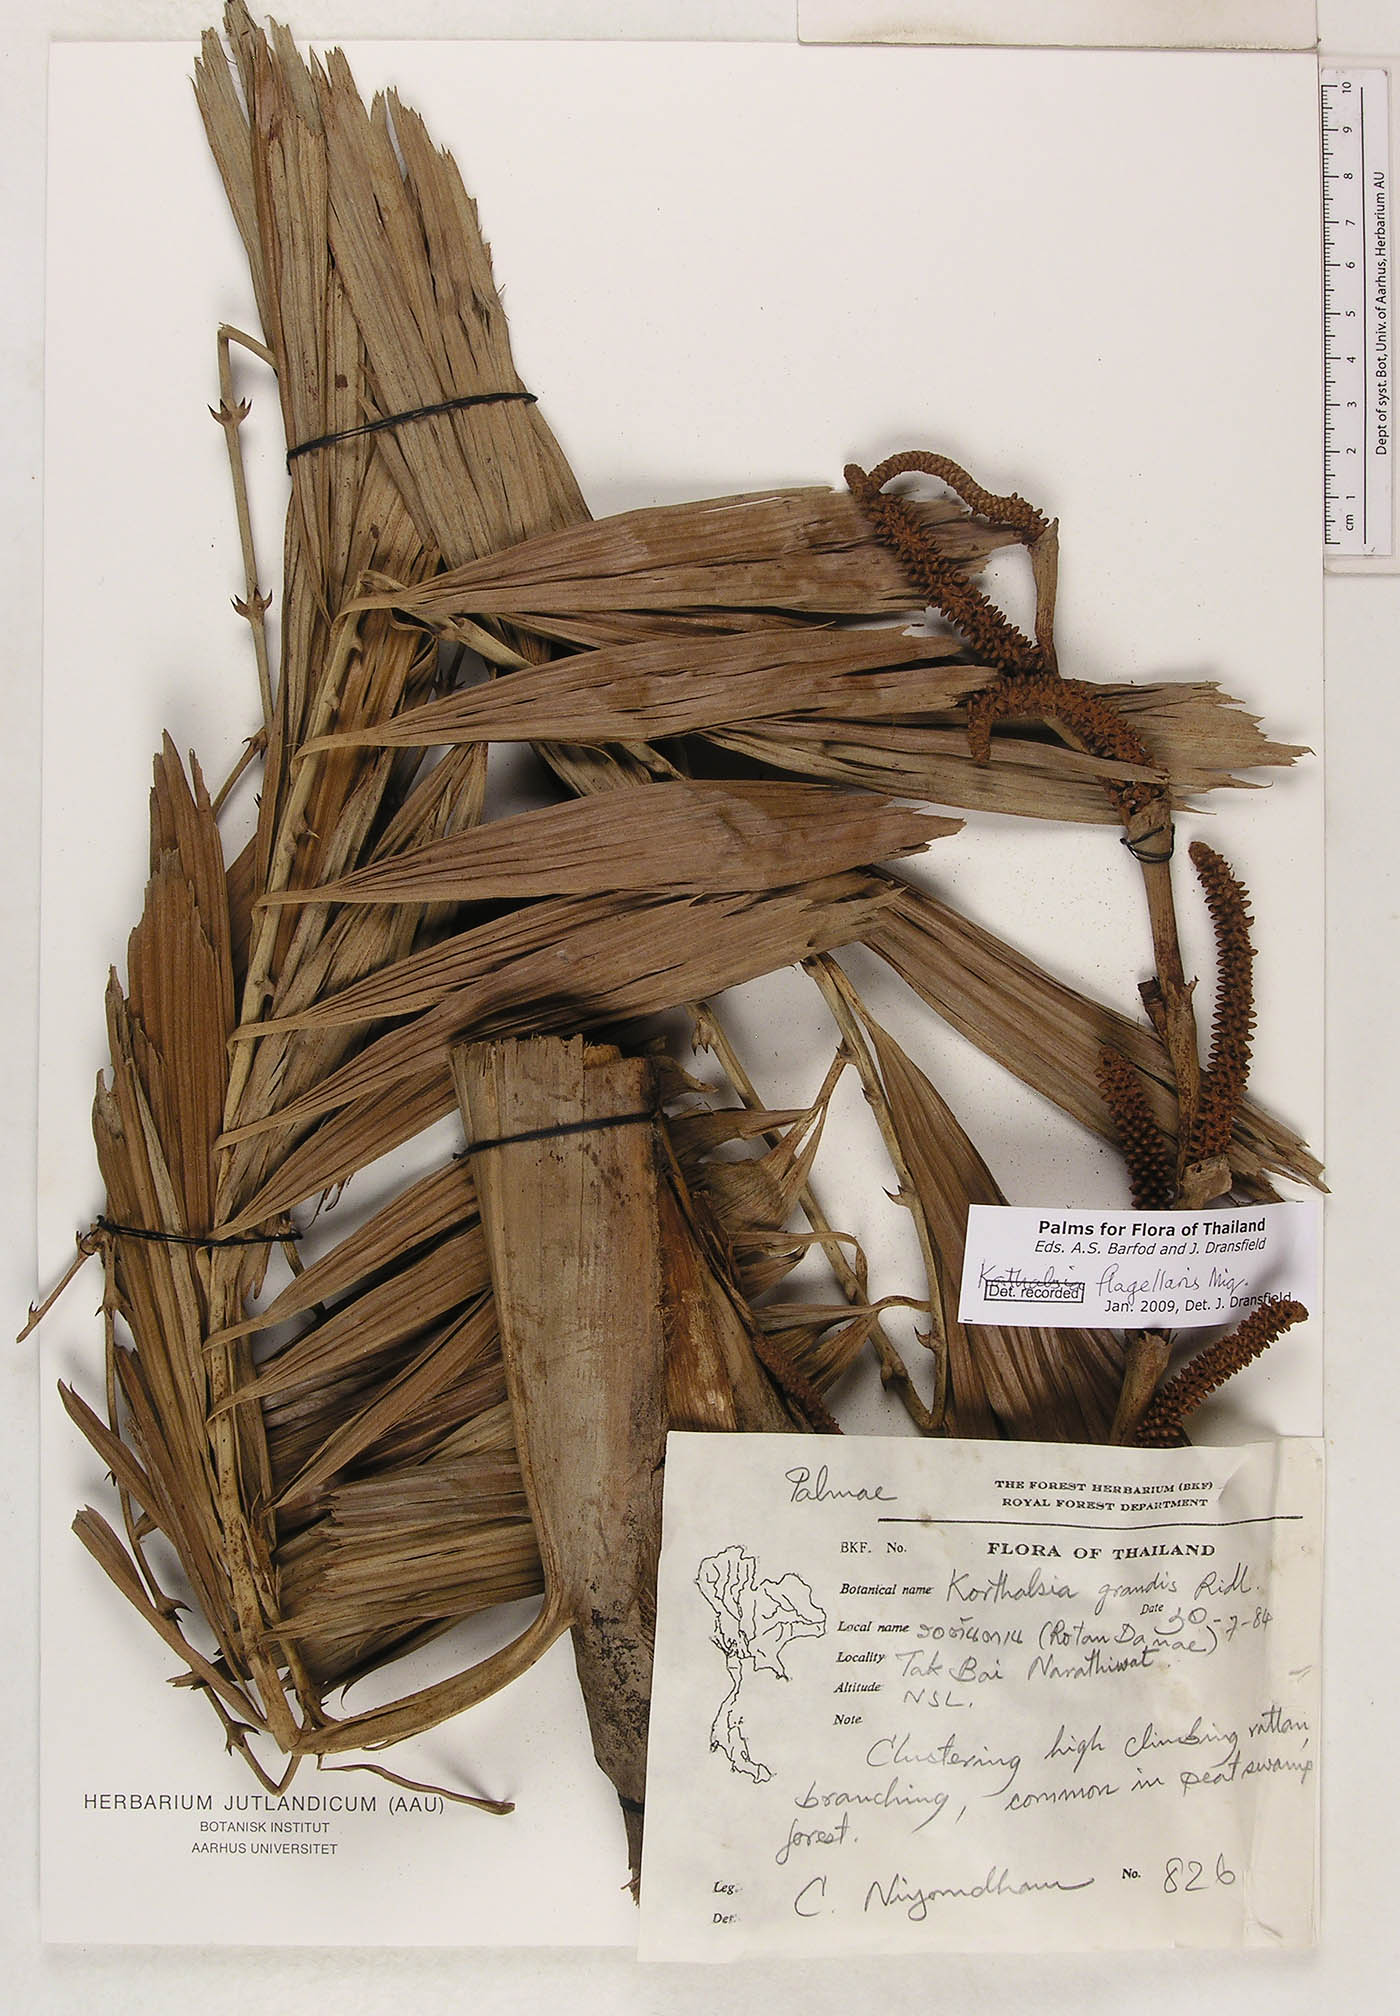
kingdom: Plantae
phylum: Tracheophyta
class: Liliopsida
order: Arecales
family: Arecaceae
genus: Korthalsia
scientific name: Korthalsia flagellaris
